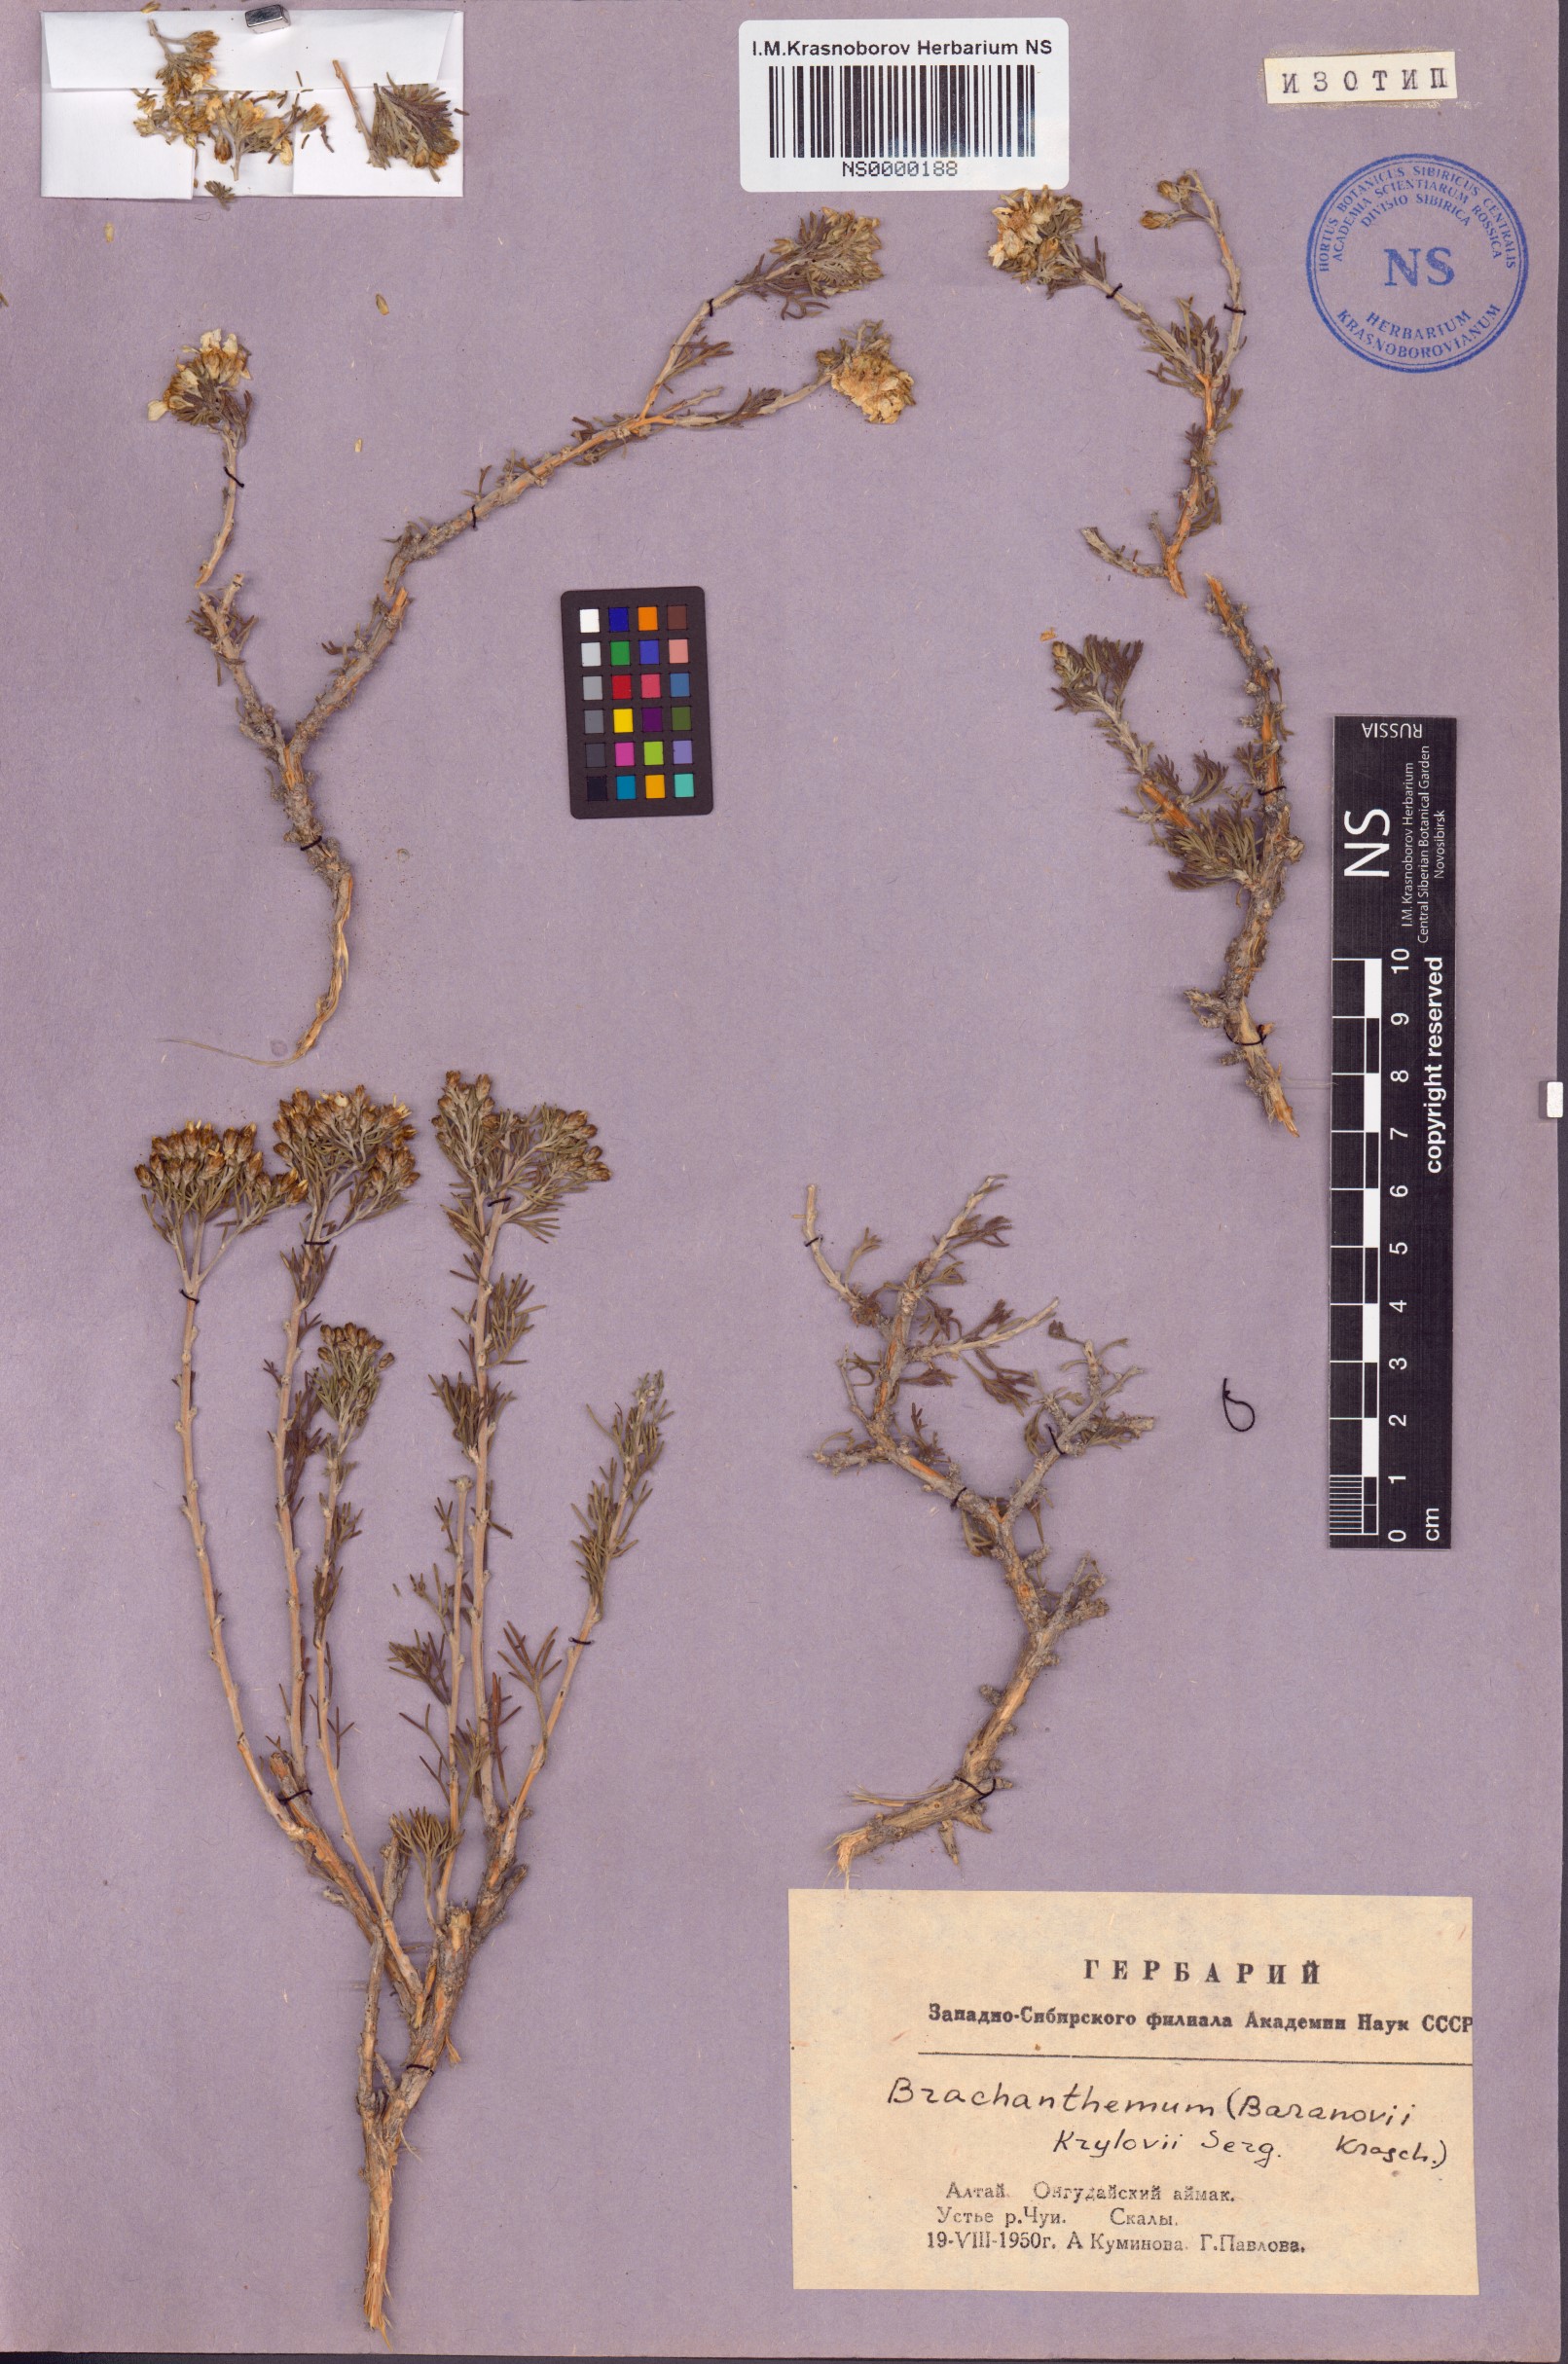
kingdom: Plantae
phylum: Tracheophyta
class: Magnoliopsida
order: Asterales
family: Asteraceae
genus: Brachanthemum
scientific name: Brachanthemum krylovii
